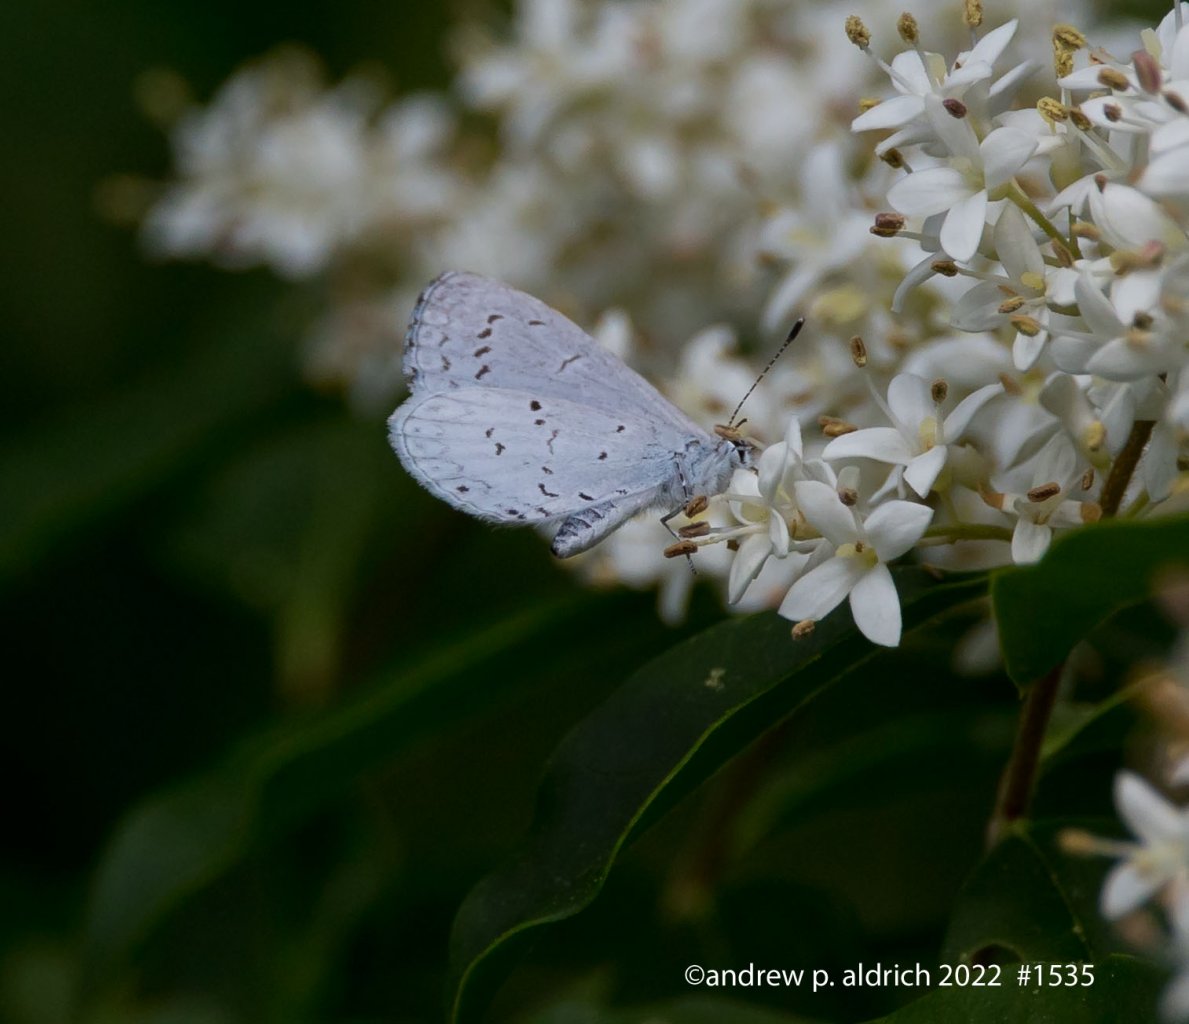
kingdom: Animalia
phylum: Arthropoda
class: Insecta
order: Lepidoptera
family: Lycaenidae
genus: Celastrina
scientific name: Celastrina
